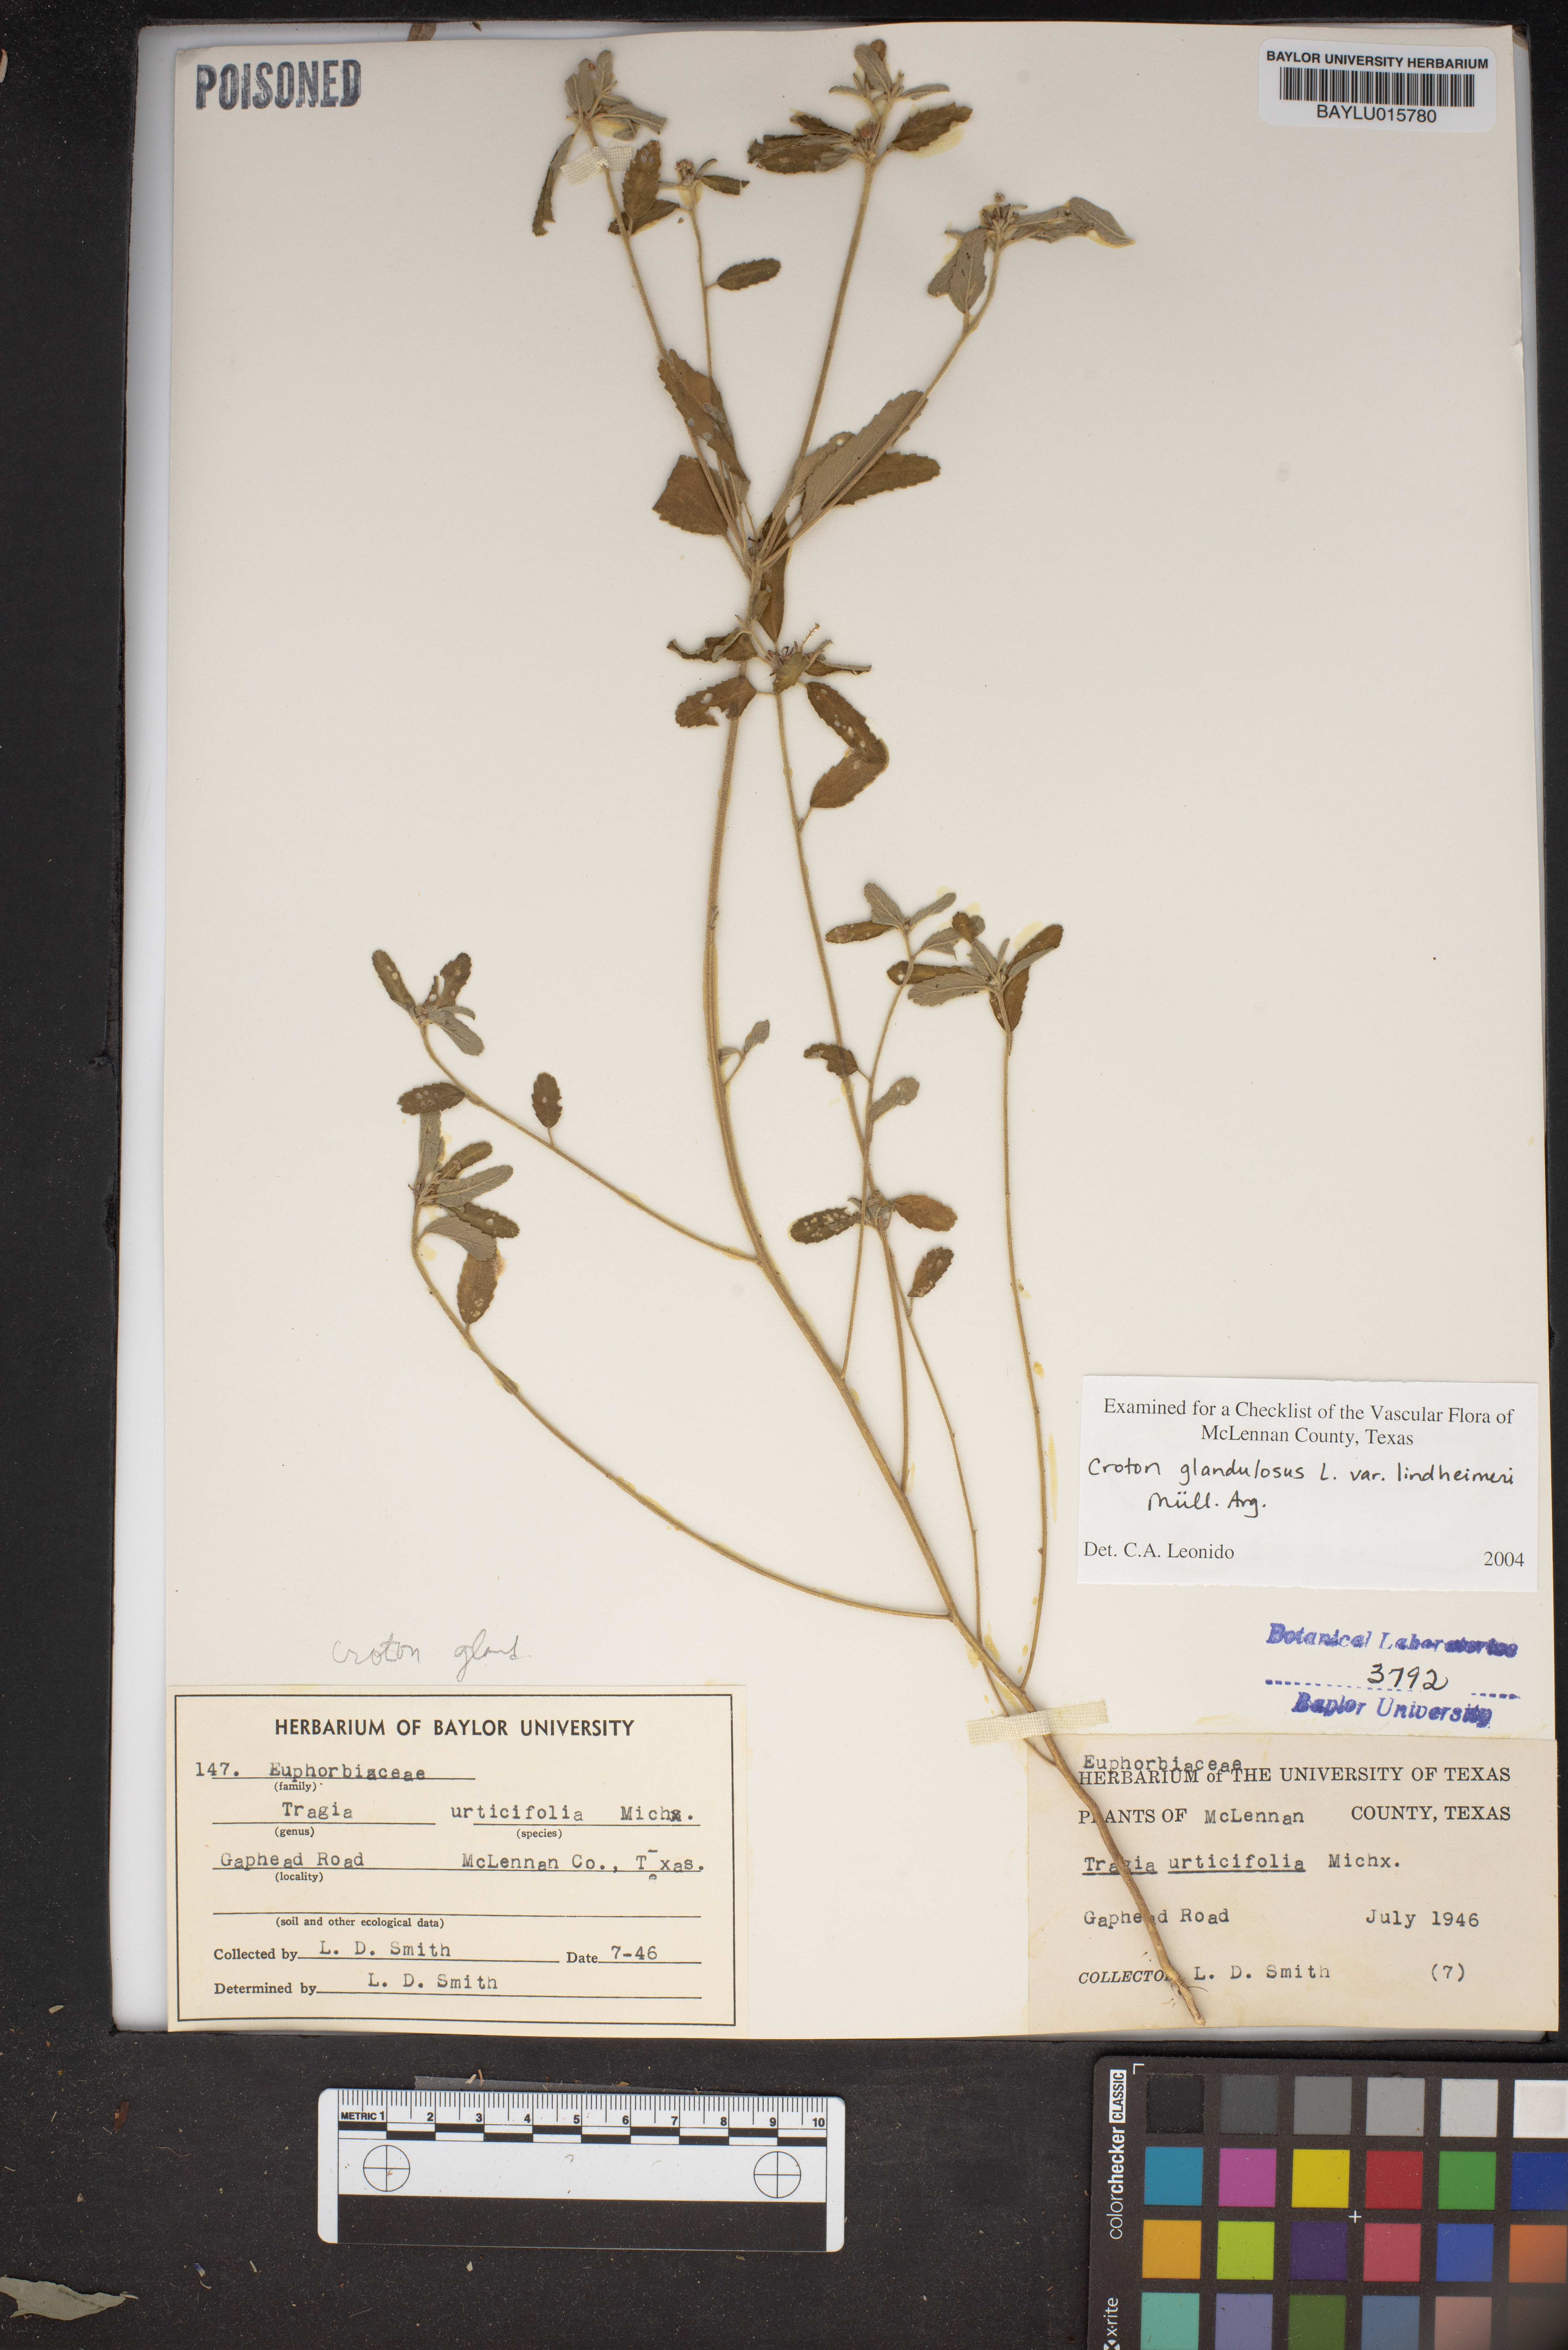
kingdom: Plantae
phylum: Tracheophyta
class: Magnoliopsida
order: Malpighiales
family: Euphorbiaceae
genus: Tragia
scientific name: Tragia urticifolia
